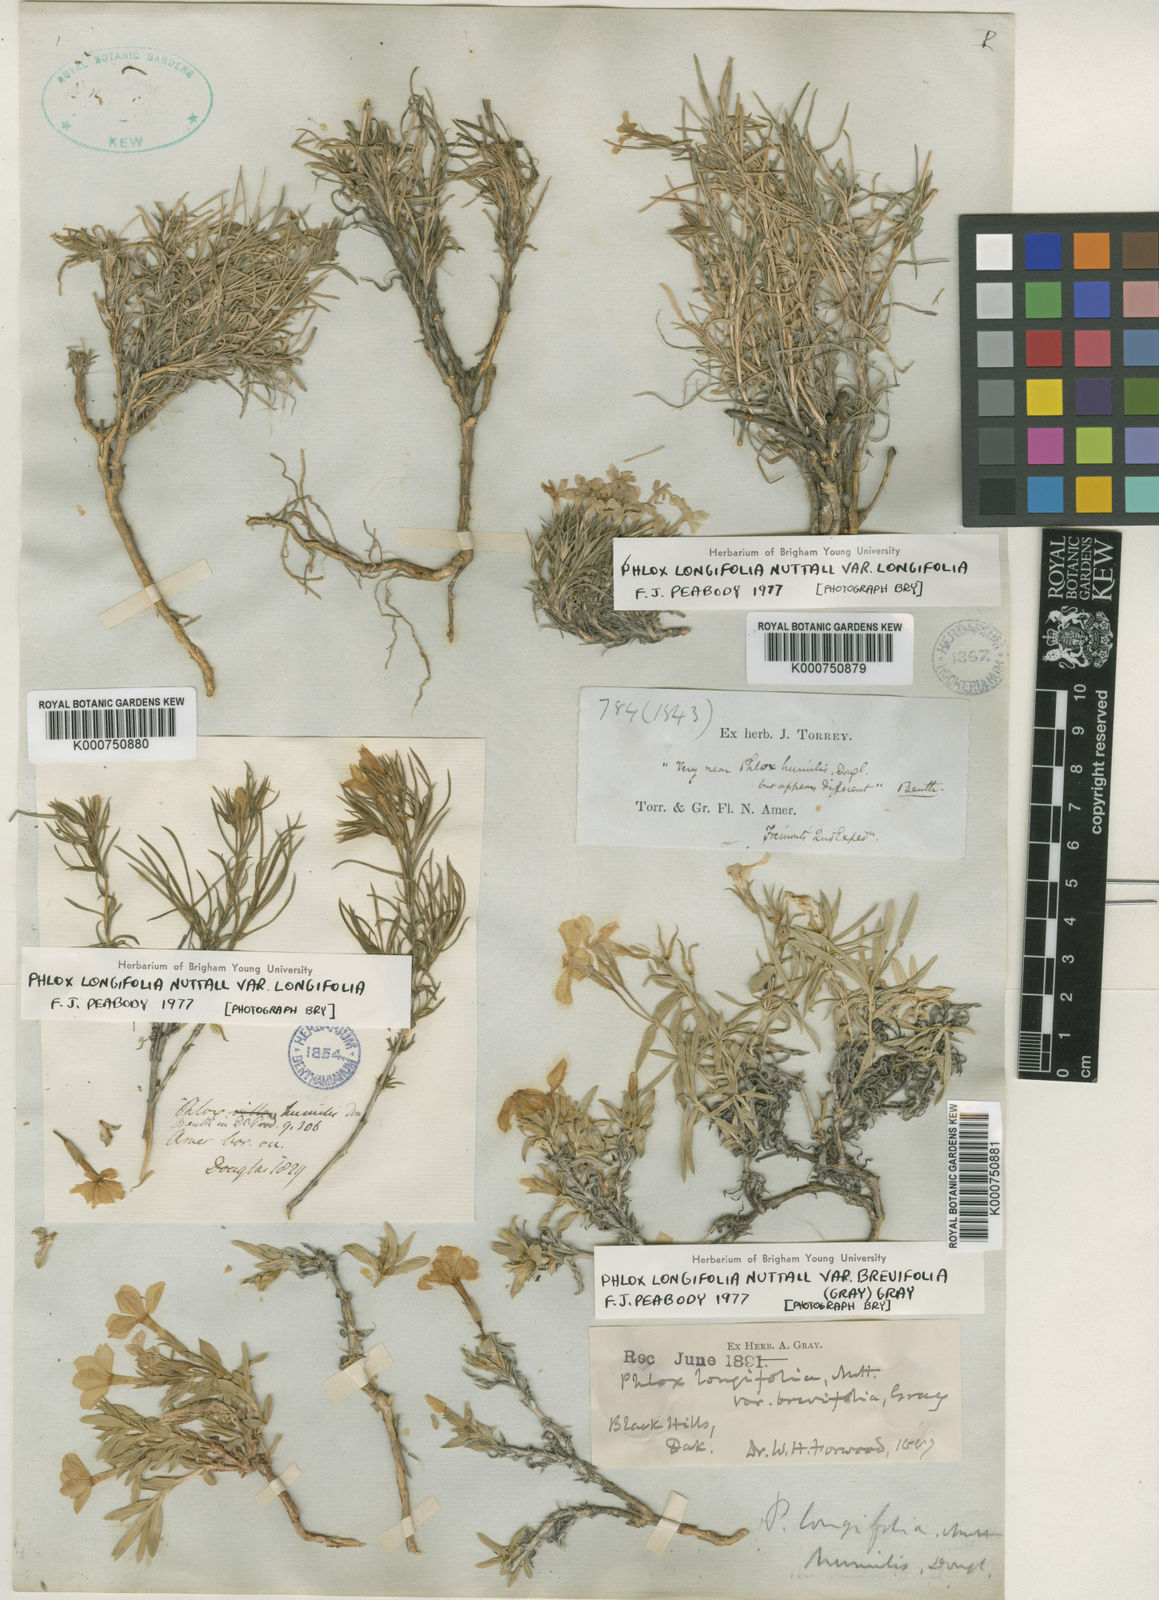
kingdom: Plantae
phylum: Tracheophyta
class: Magnoliopsida
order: Ericales
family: Polemoniaceae
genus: Phlox
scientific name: Phlox longifolia
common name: Longleaf phlox
